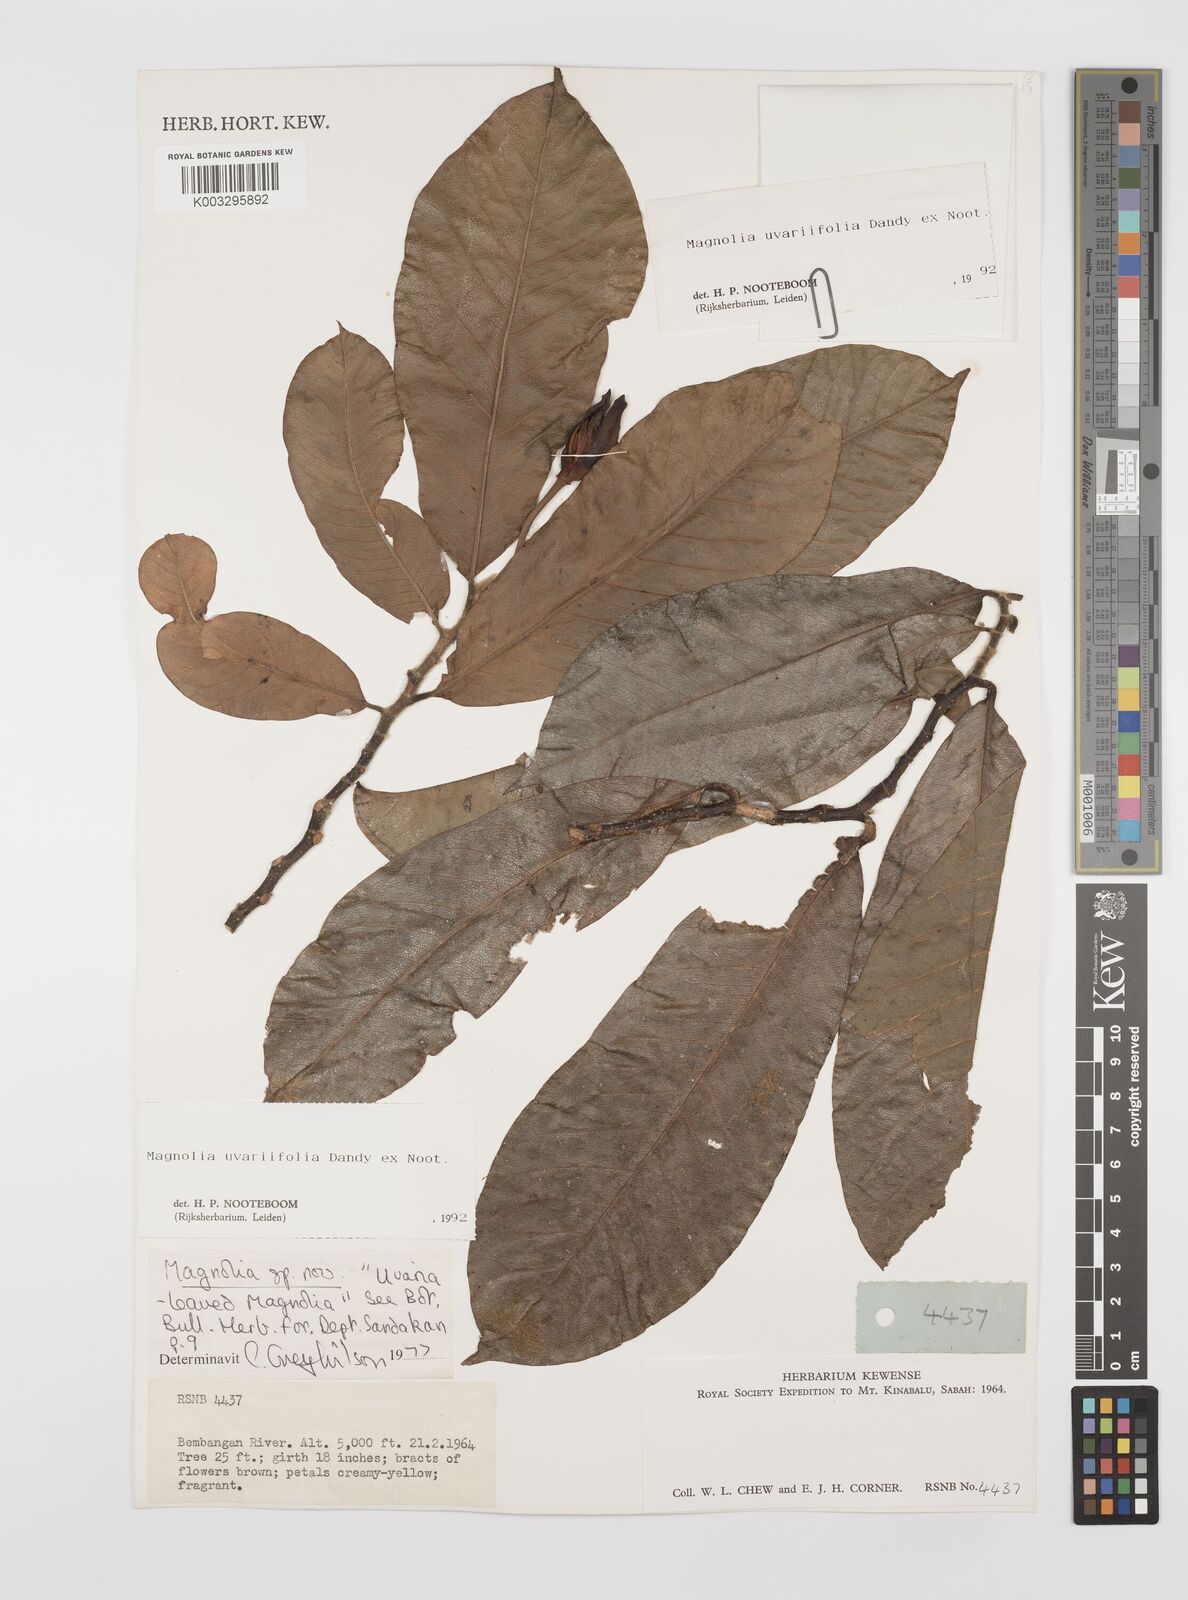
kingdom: Plantae
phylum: Tracheophyta
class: Magnoliopsida
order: Magnoliales
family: Magnoliaceae
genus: Magnolia
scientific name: Magnolia macklottii
